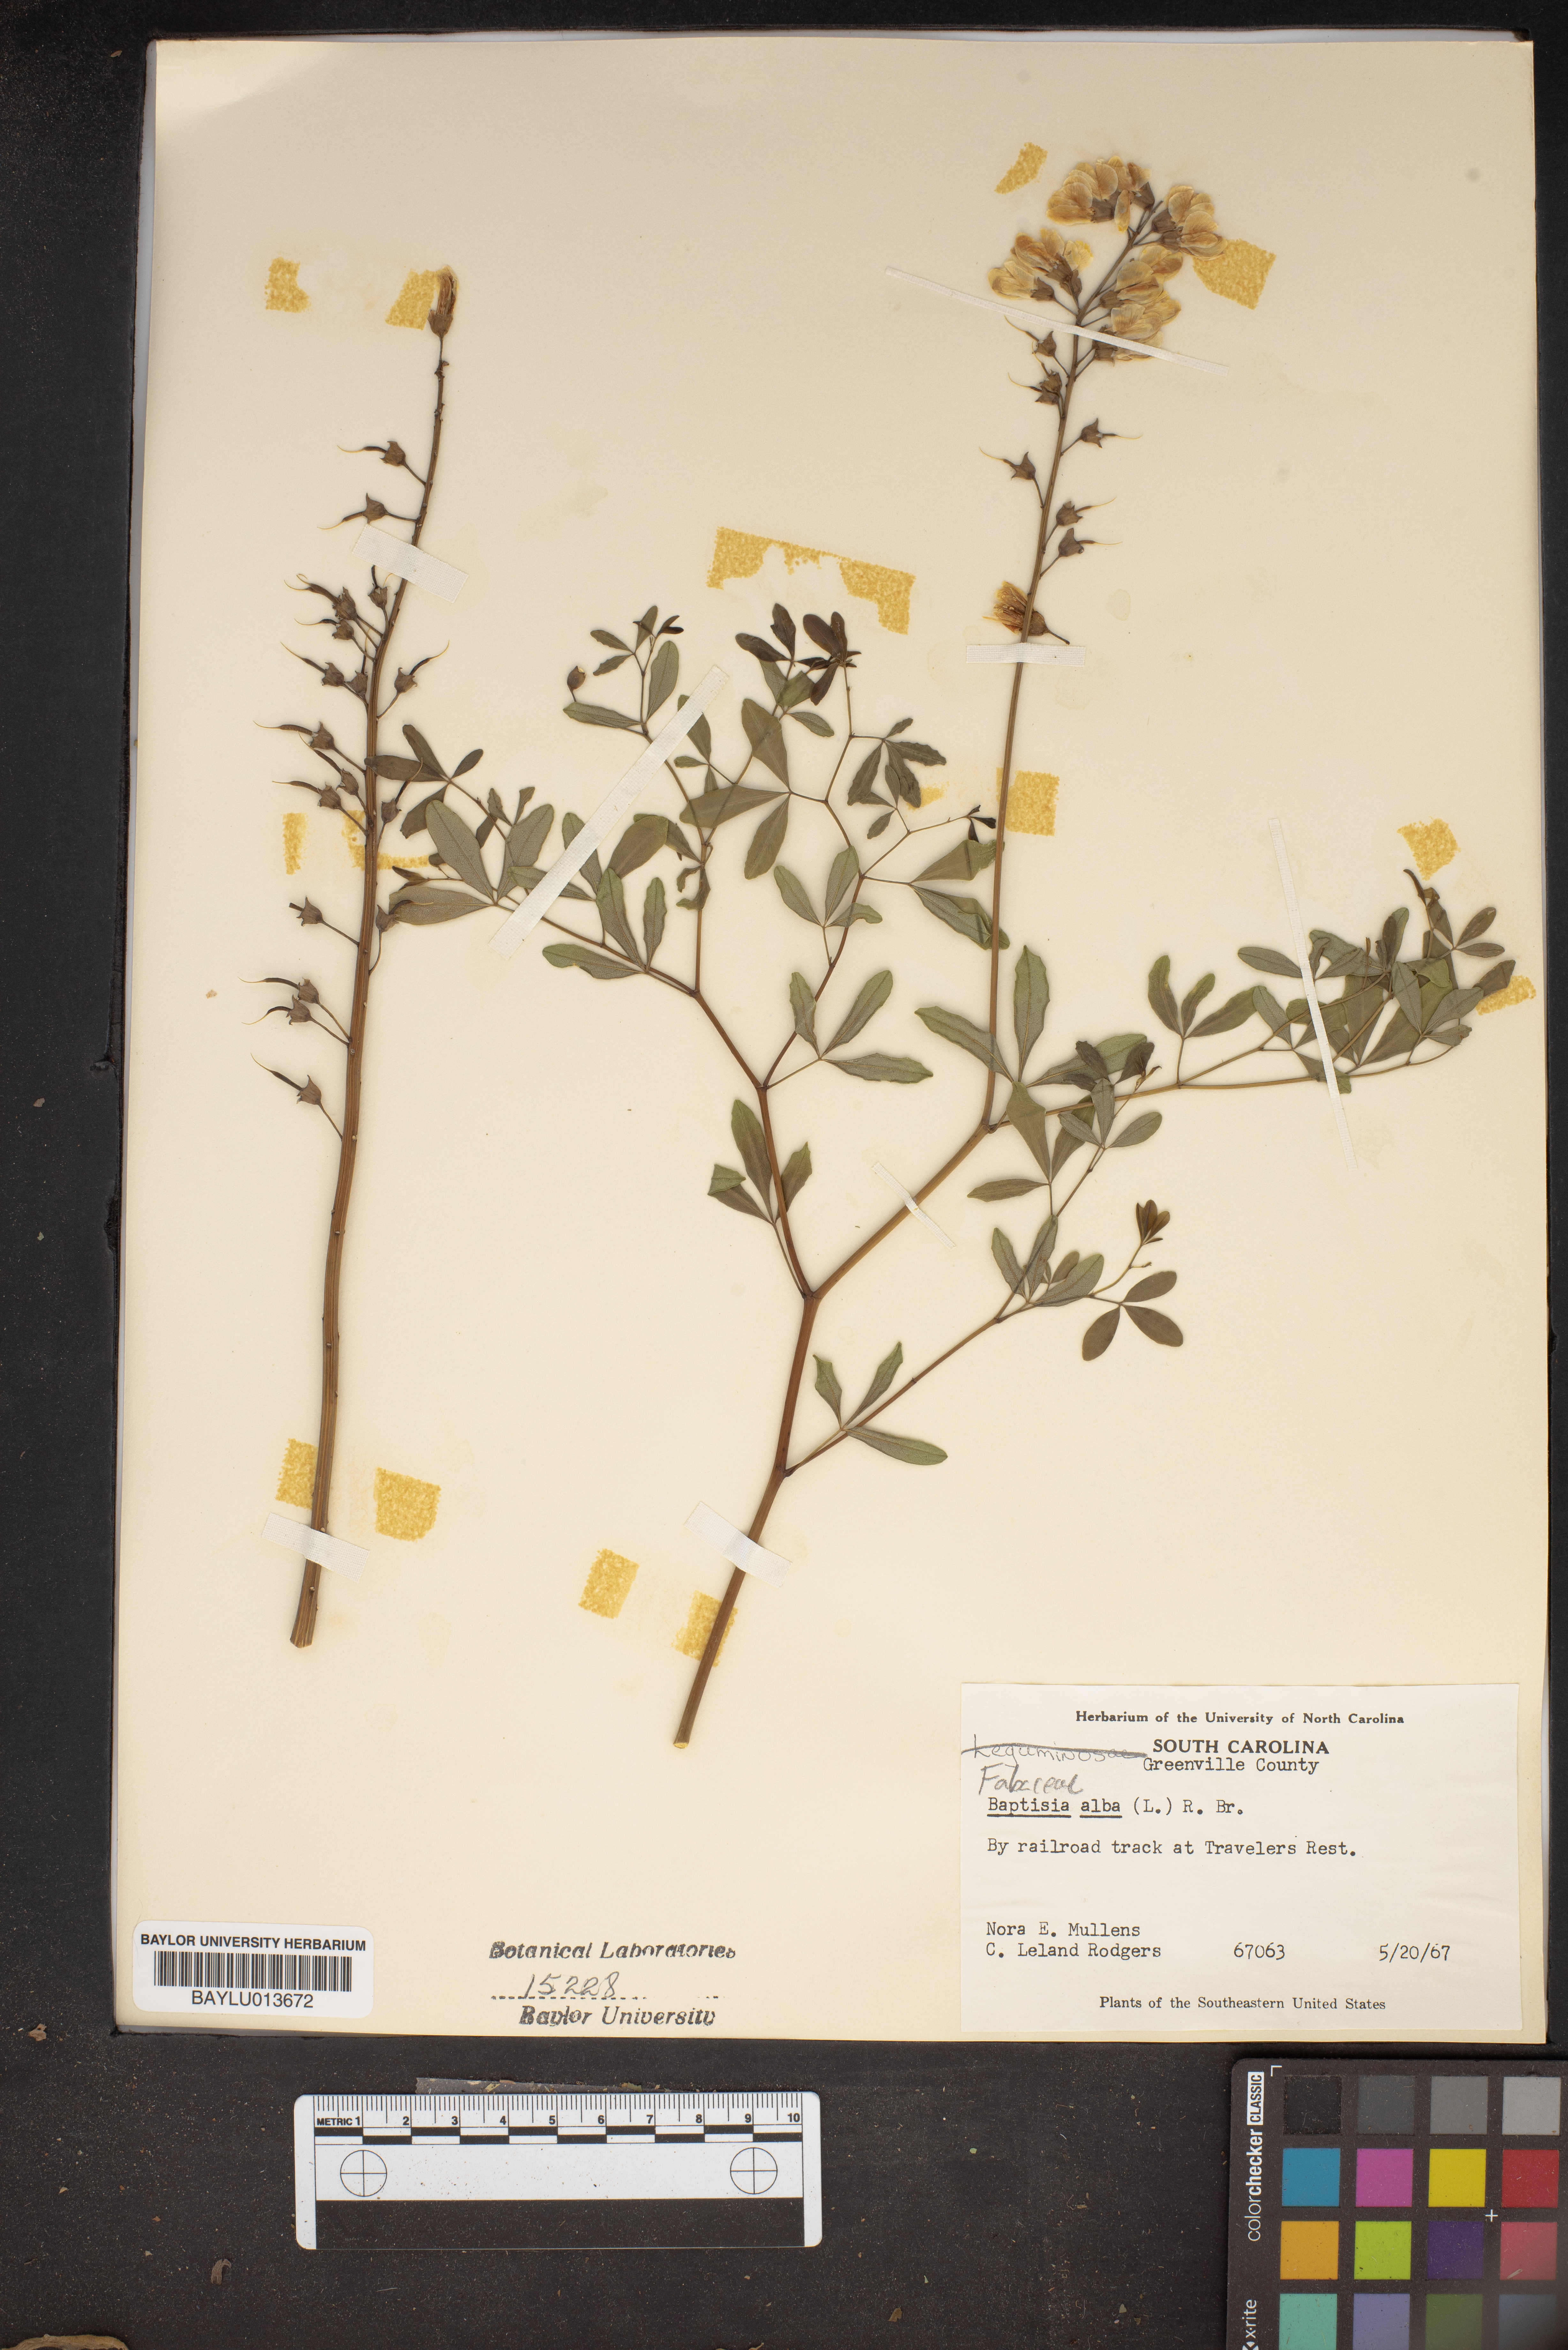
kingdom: Plantae
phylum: Tracheophyta
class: Magnoliopsida
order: Fabales
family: Fabaceae
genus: Baptisia
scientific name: Baptisia alba
